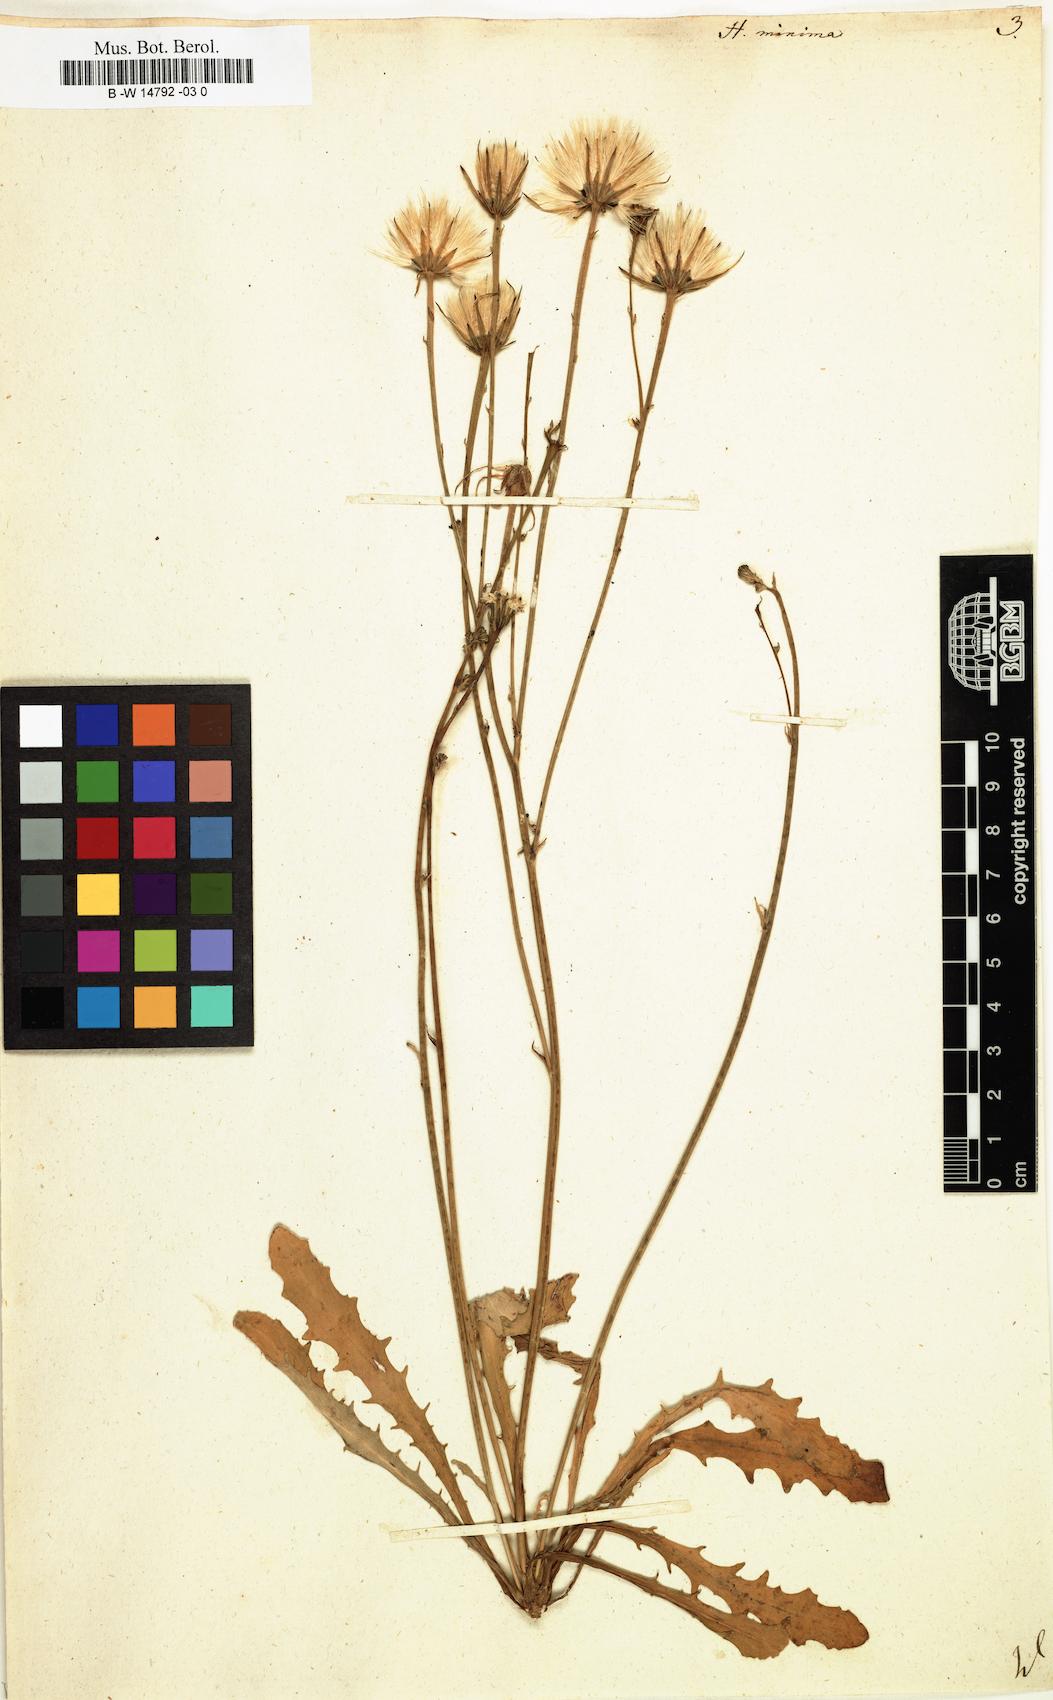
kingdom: Plantae
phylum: Tracheophyta
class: Magnoliopsida
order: Asterales
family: Asteraceae
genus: Hypochaeris
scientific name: Hypochaeris
